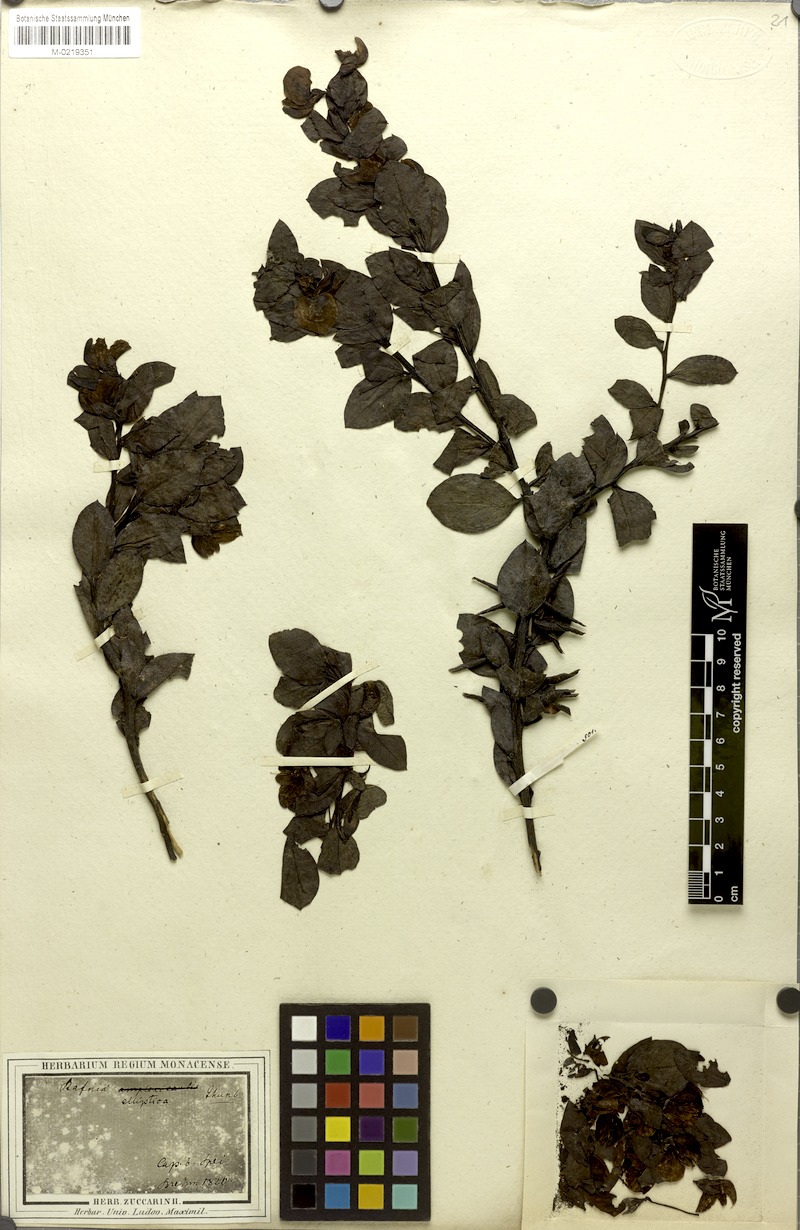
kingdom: Plantae
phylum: Tracheophyta
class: Magnoliopsida
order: Fabales
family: Fabaceae
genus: Rafnia
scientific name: Rafnia elliptica
